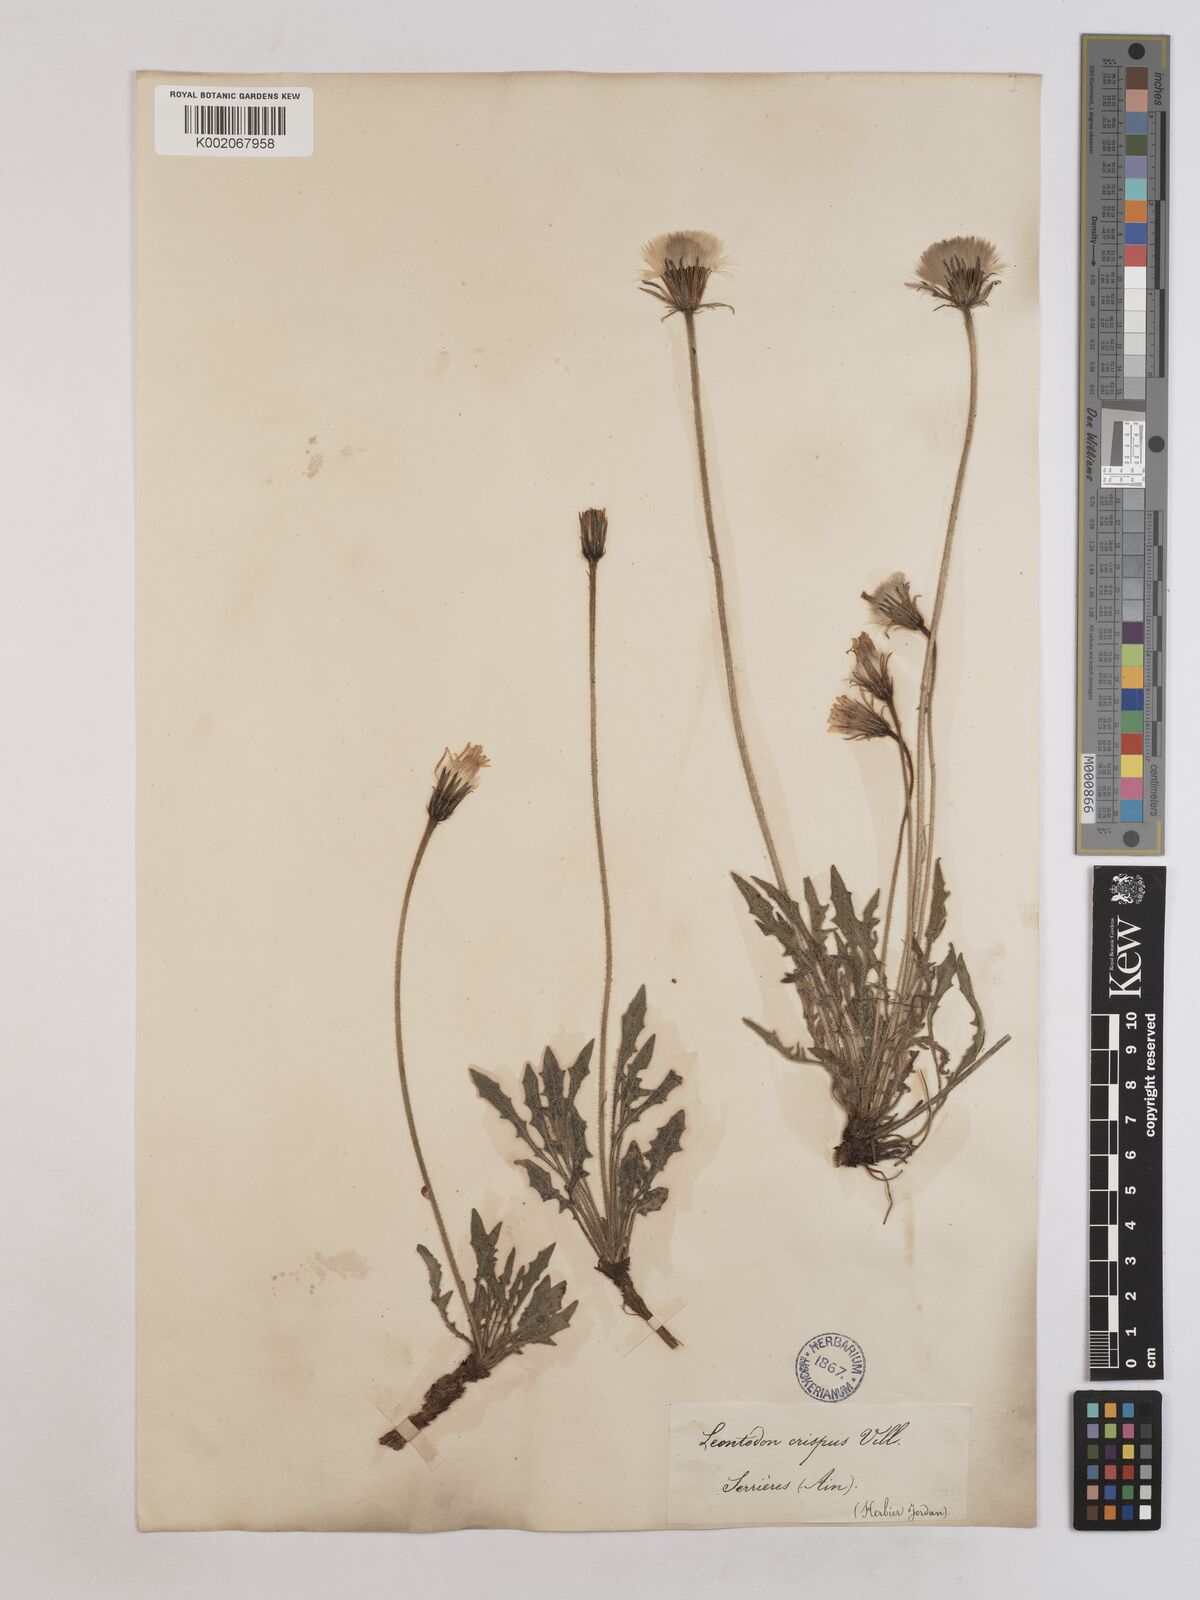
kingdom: Plantae
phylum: Tracheophyta
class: Magnoliopsida
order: Asterales
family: Asteraceae
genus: Leontodon
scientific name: Leontodon crispus
